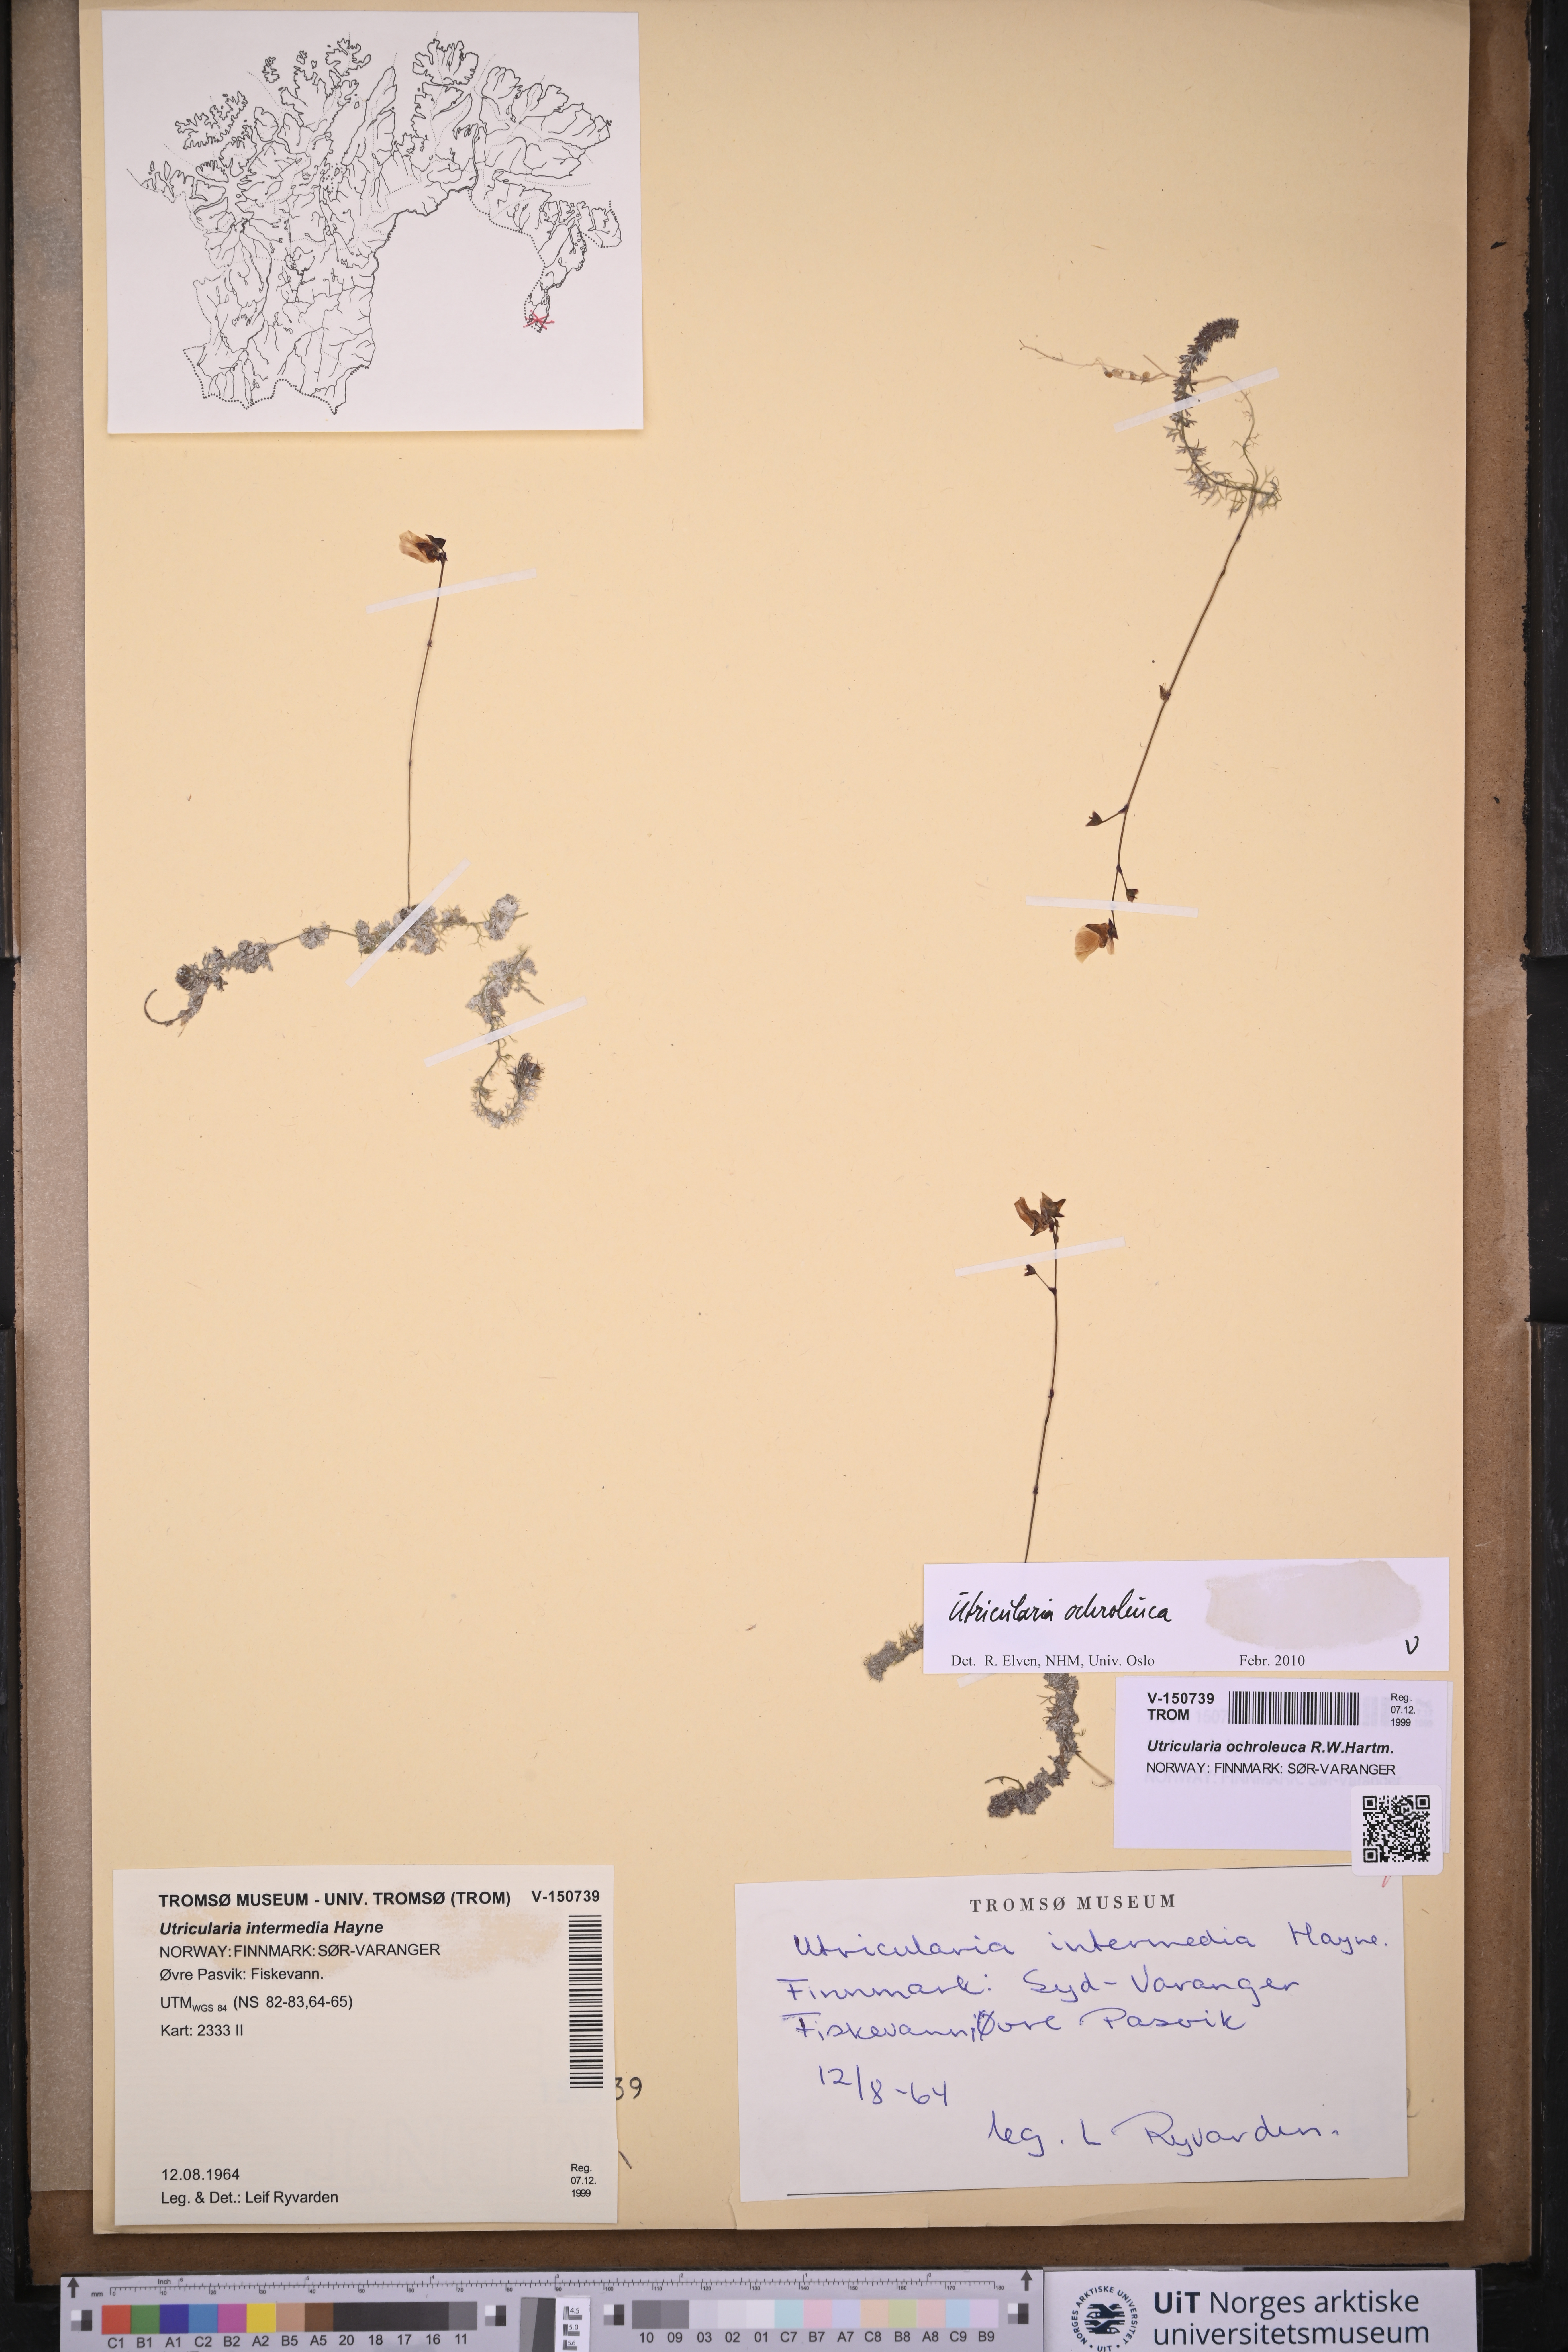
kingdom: Plantae
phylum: Tracheophyta
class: Magnoliopsida
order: Lamiales
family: Lentibulariaceae
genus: Utricularia
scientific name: Utricularia ochroleuca
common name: Pale bladderwort
